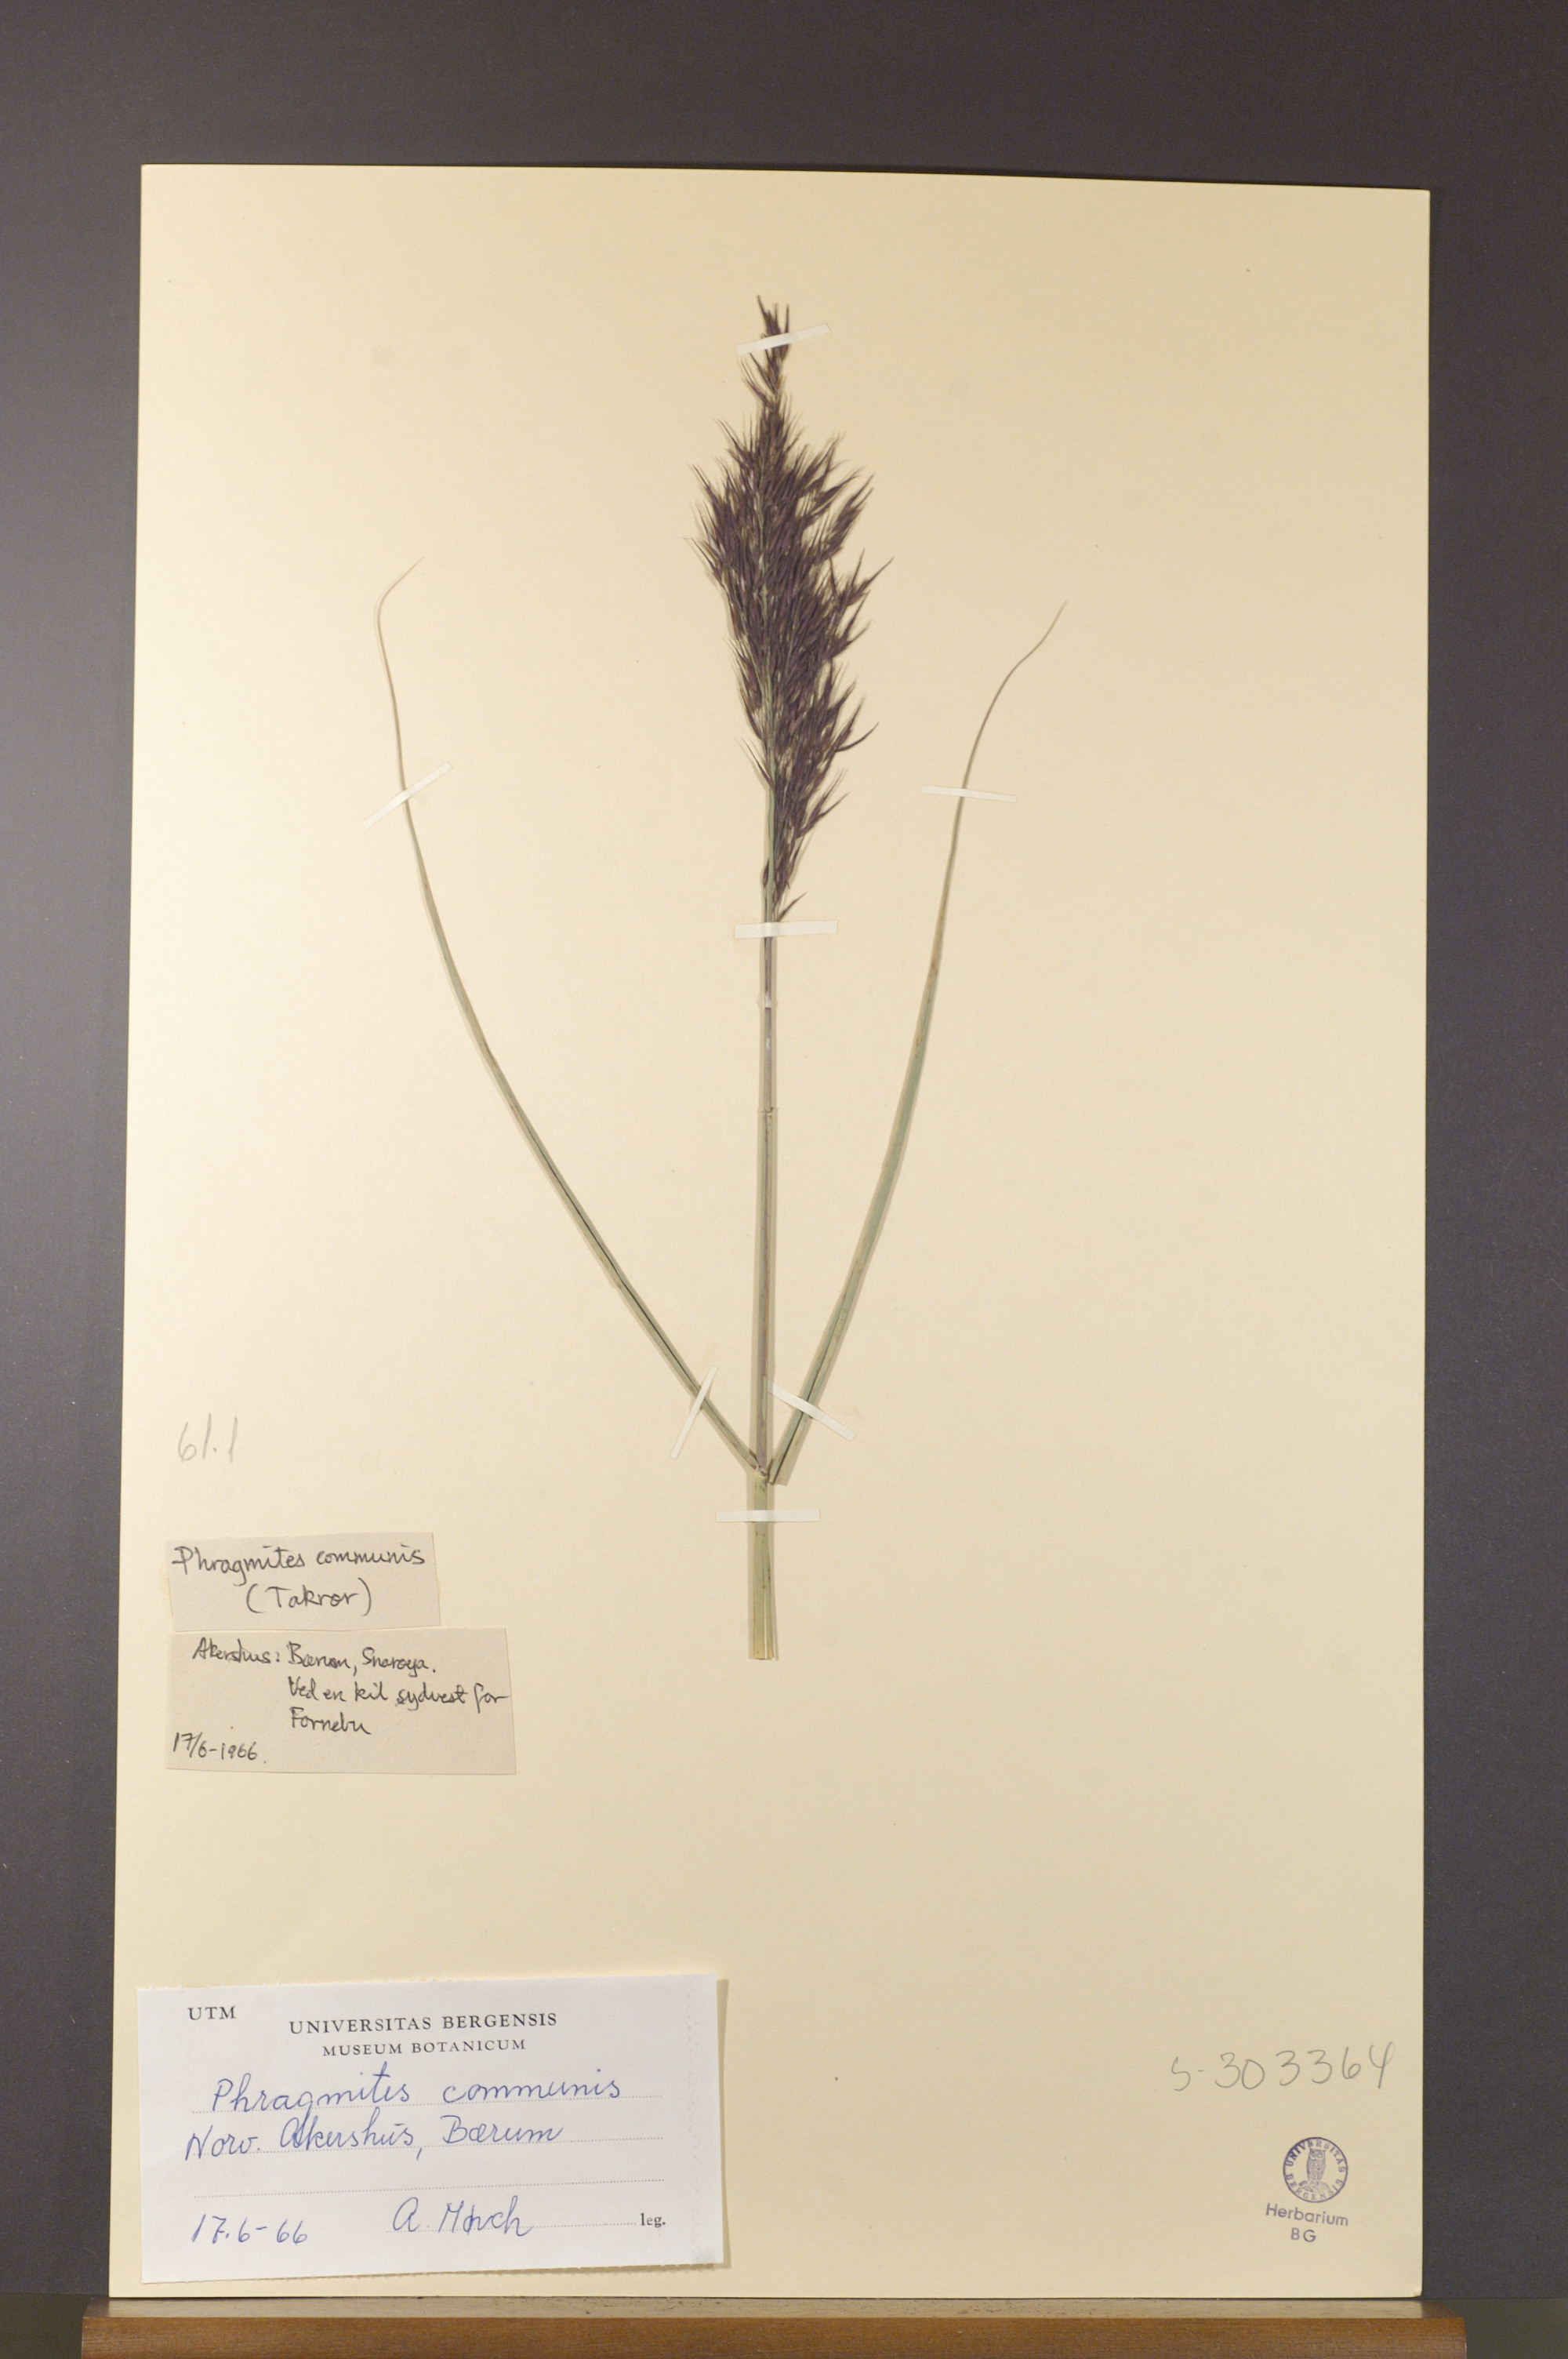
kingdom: Plantae
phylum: Tracheophyta
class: Liliopsida
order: Poales
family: Poaceae
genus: Phragmites
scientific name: Phragmites australis
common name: Common reed
